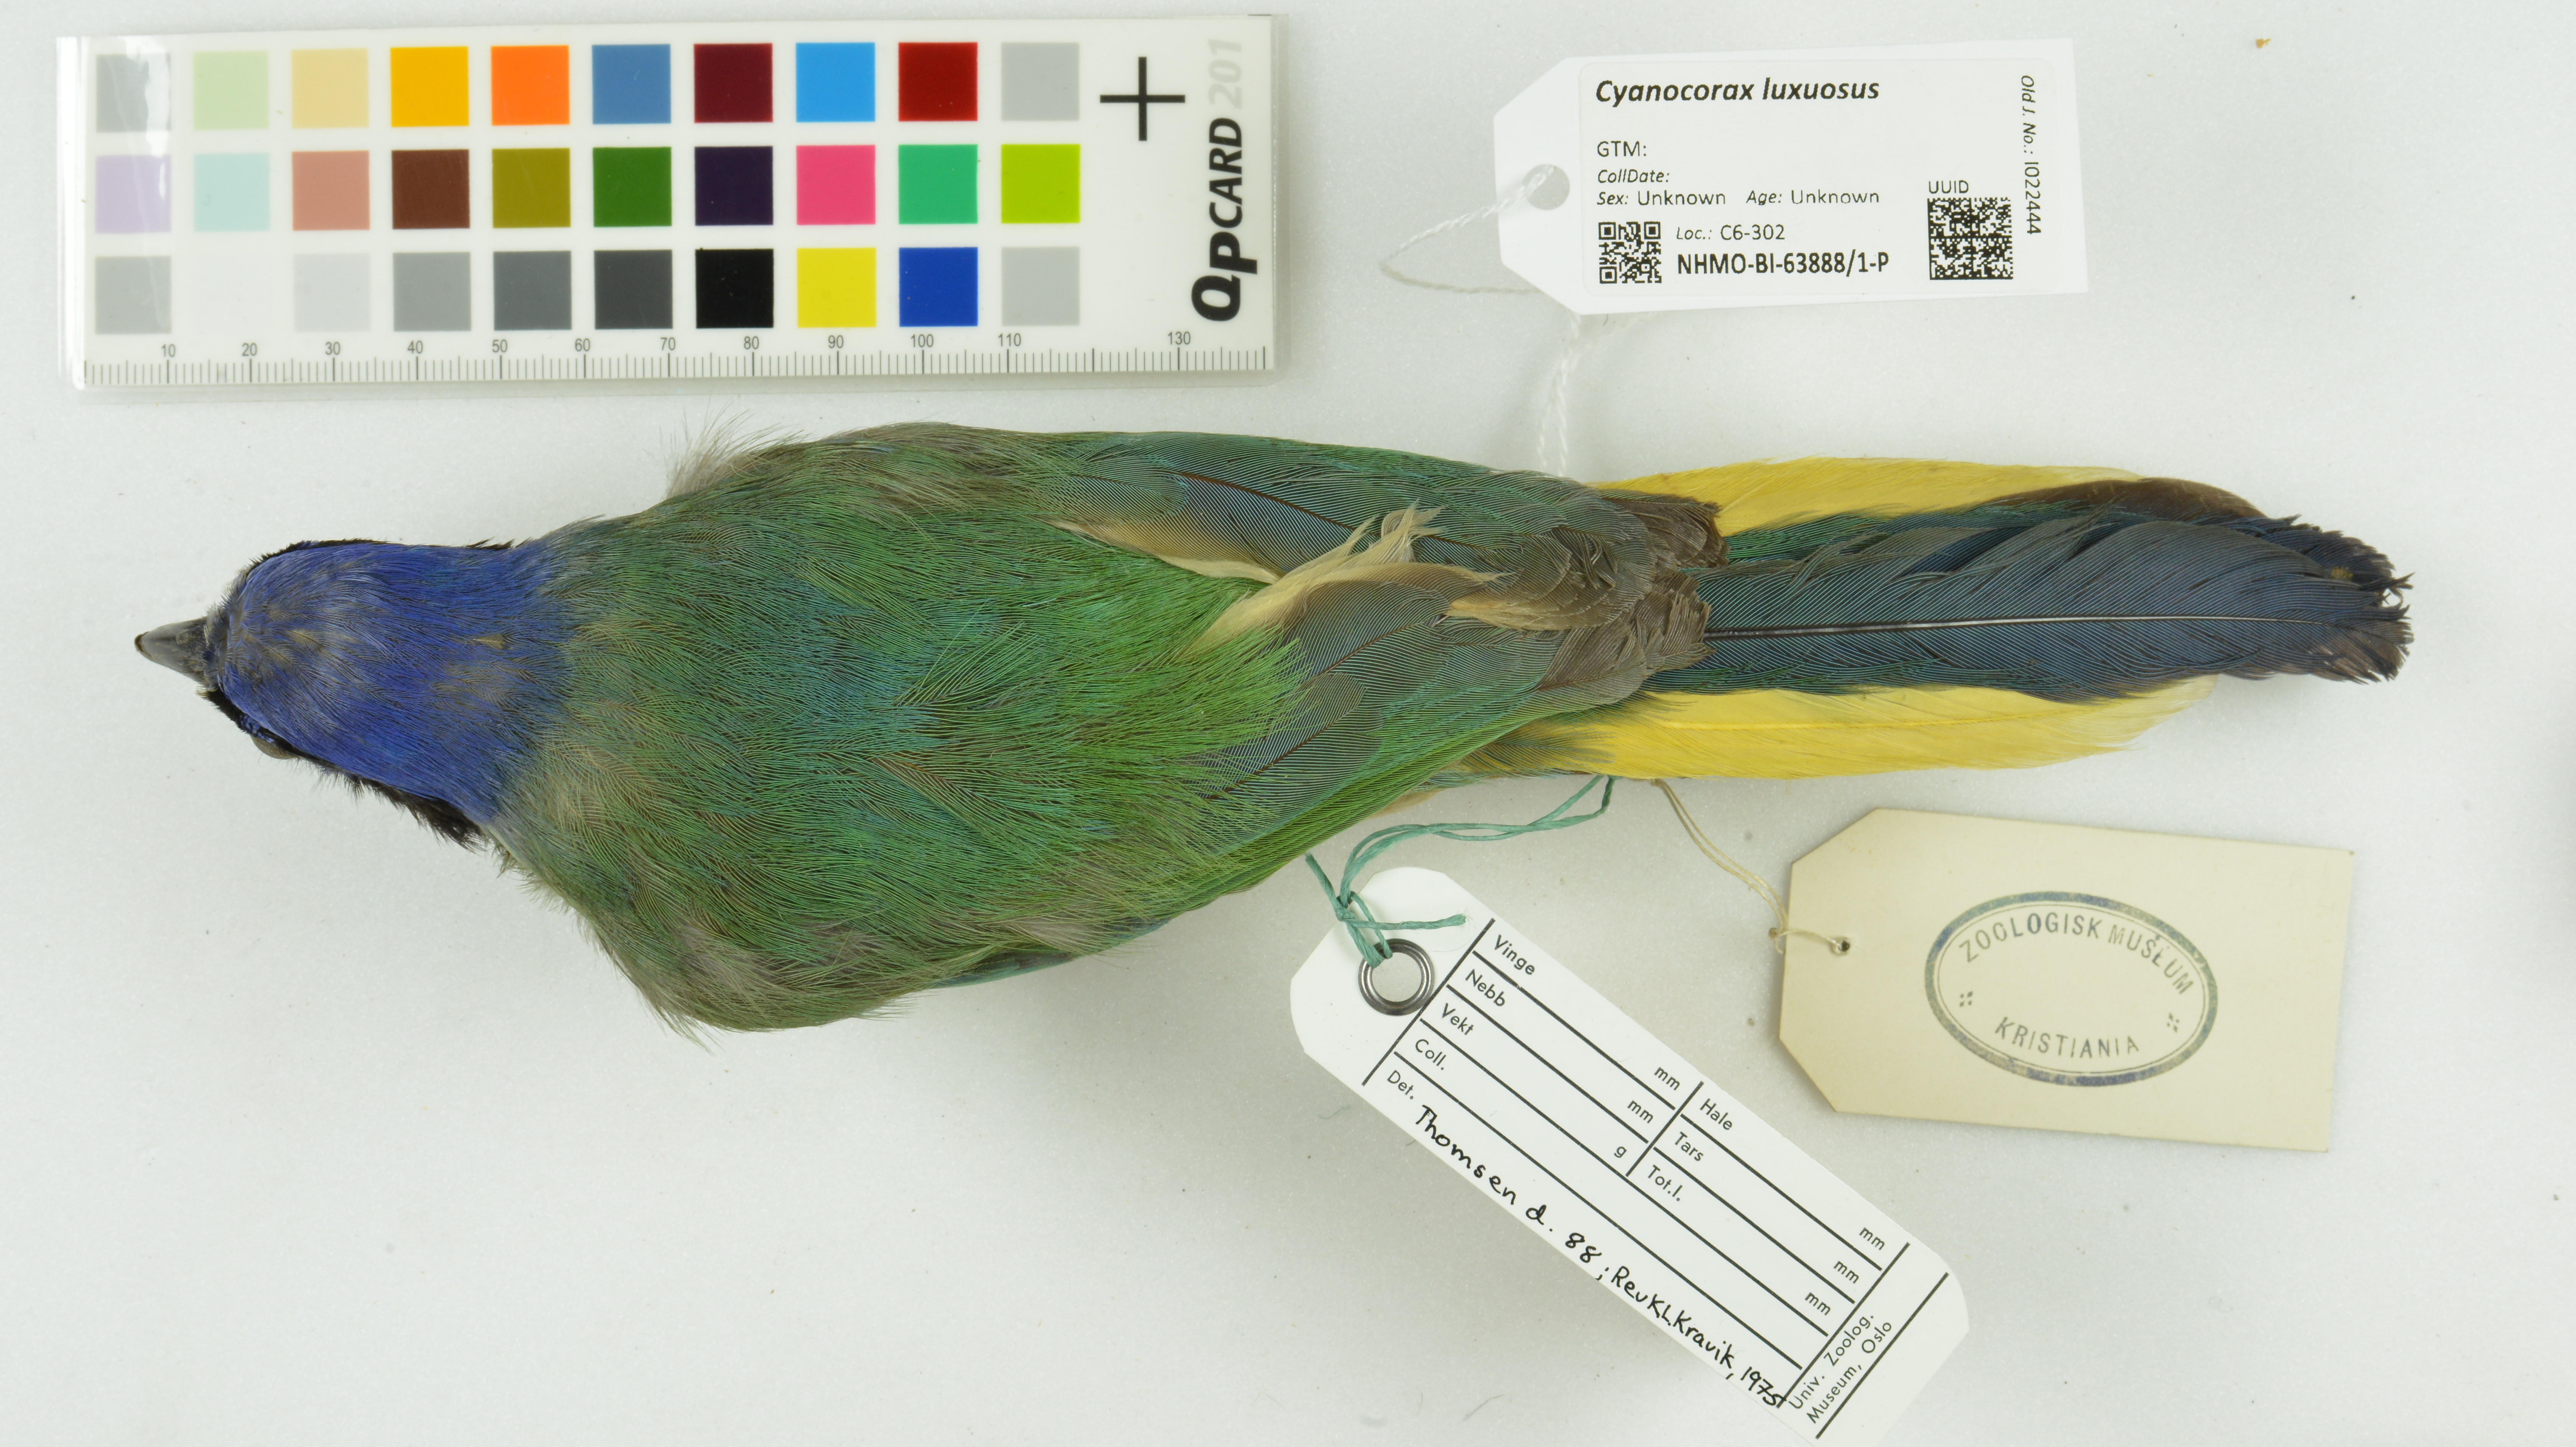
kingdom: Animalia
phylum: Chordata
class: Aves
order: Passeriformes
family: Corvidae
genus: Cyanocorax
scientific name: Cyanocorax luxuosus
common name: Green jay
